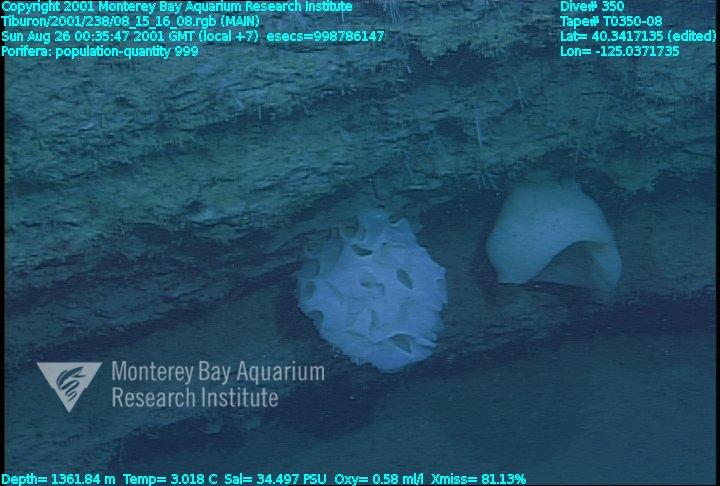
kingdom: Animalia
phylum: Porifera
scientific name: Porifera
